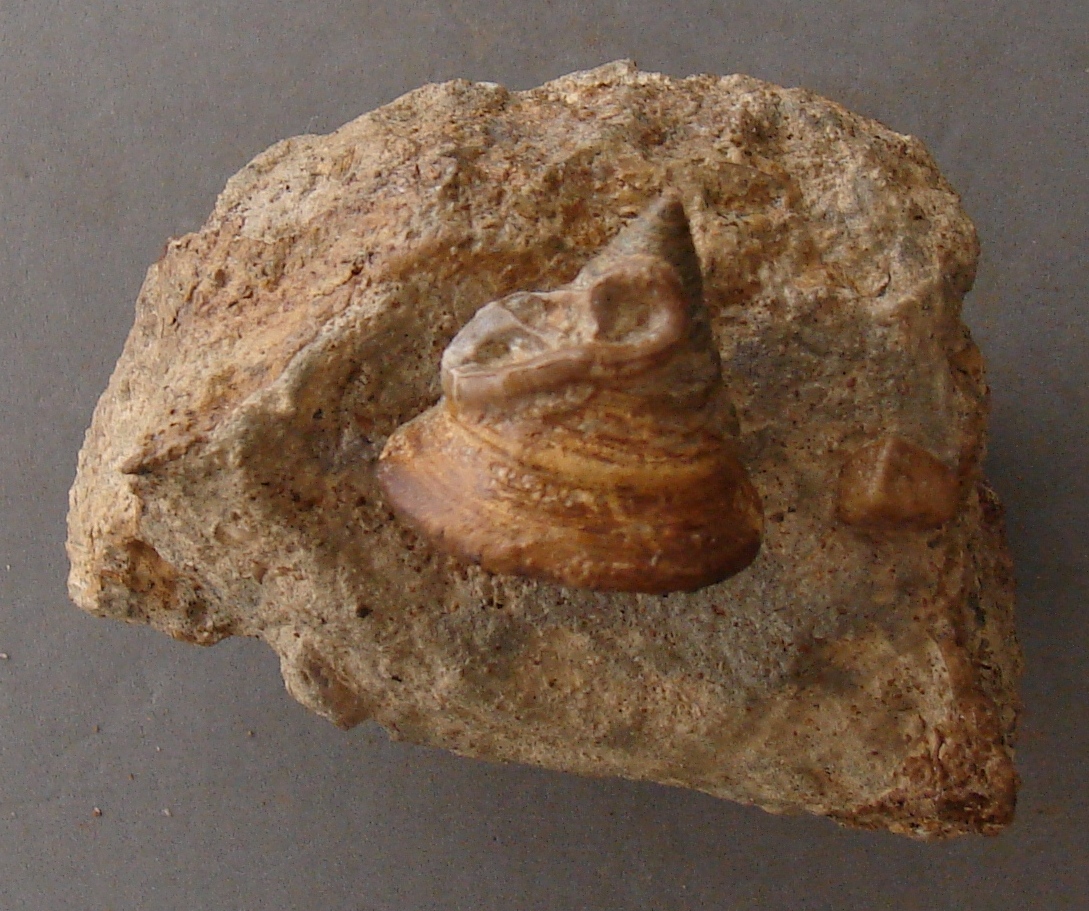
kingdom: Animalia
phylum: Mollusca
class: Gastropoda
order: Pleurotomariida
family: Pleurotomariidae
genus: Pyrgotrochus
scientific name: Pyrgotrochus elongatus
